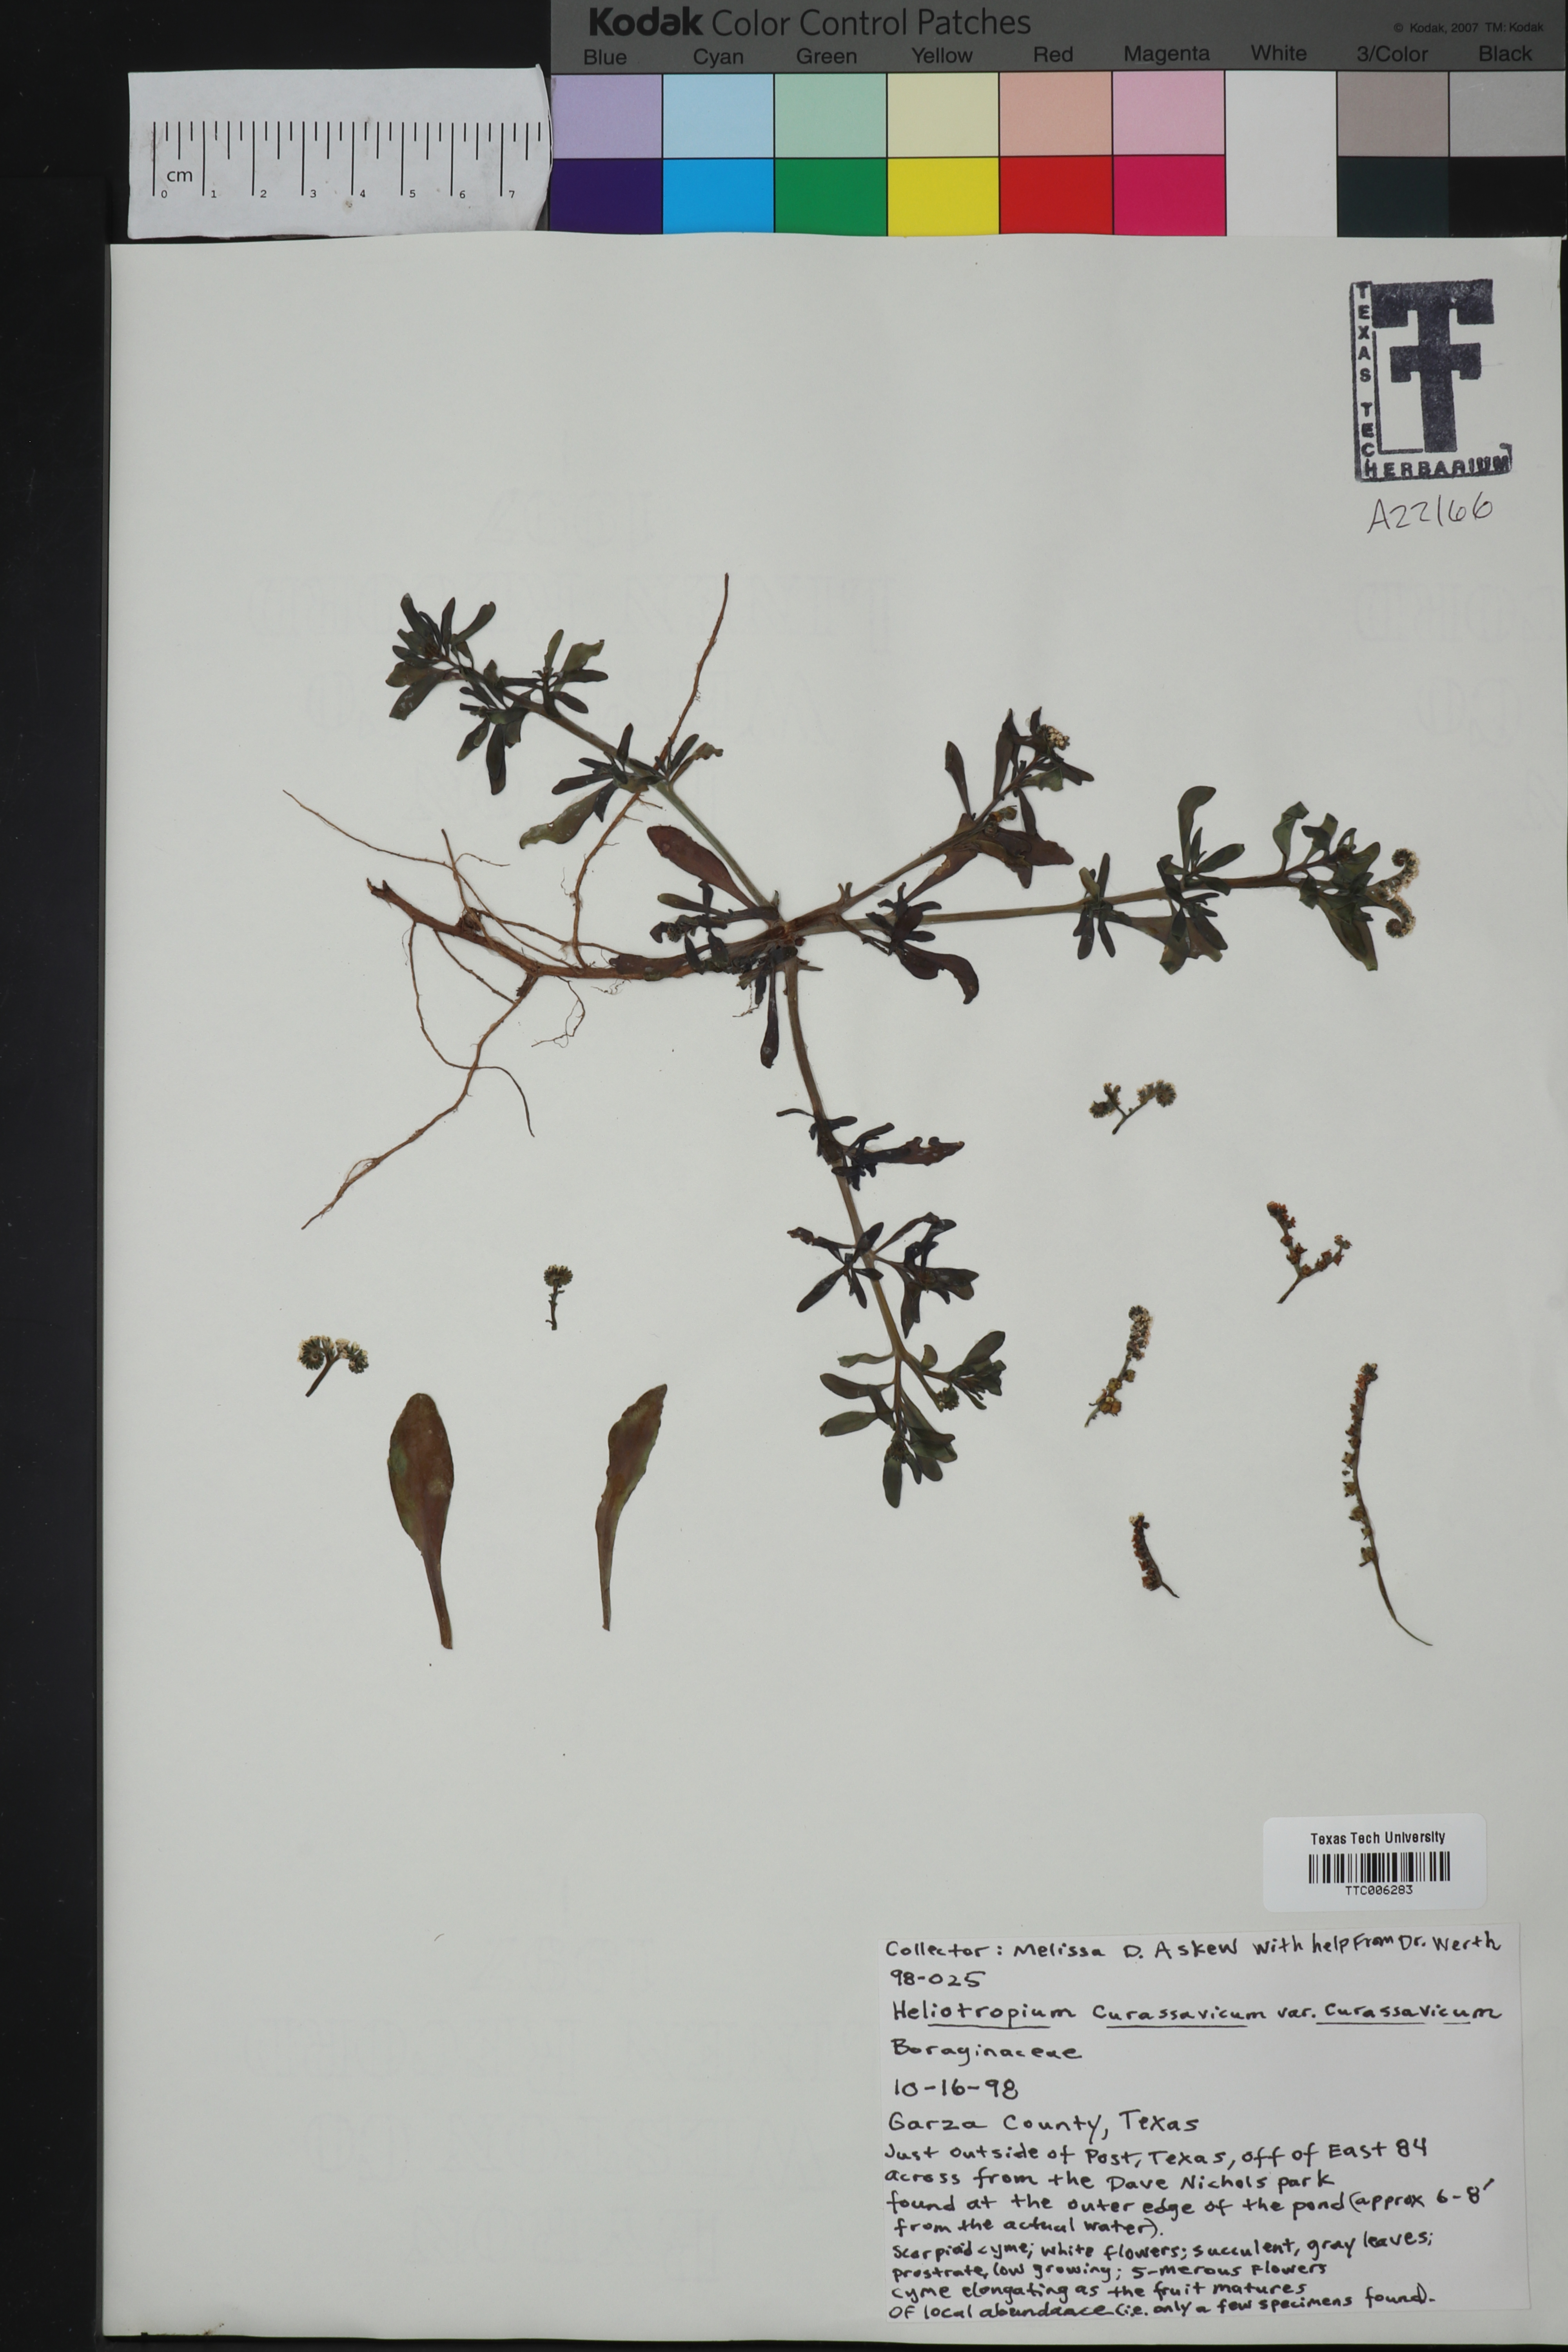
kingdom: Plantae
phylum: Tracheophyta
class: Magnoliopsida
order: Boraginales
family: Heliotropiaceae
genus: Heliotropium
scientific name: Heliotropium curassavicum
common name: Seaside heliotrope
